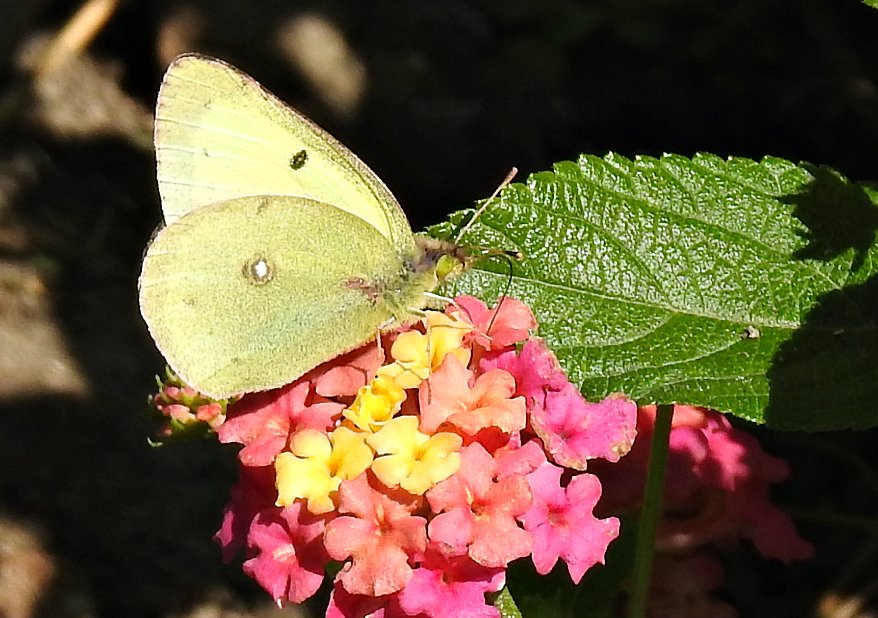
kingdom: Animalia
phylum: Arthropoda
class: Insecta
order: Lepidoptera
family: Pieridae
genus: Colias
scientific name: Colias philodice
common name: Clouded Sulphur
